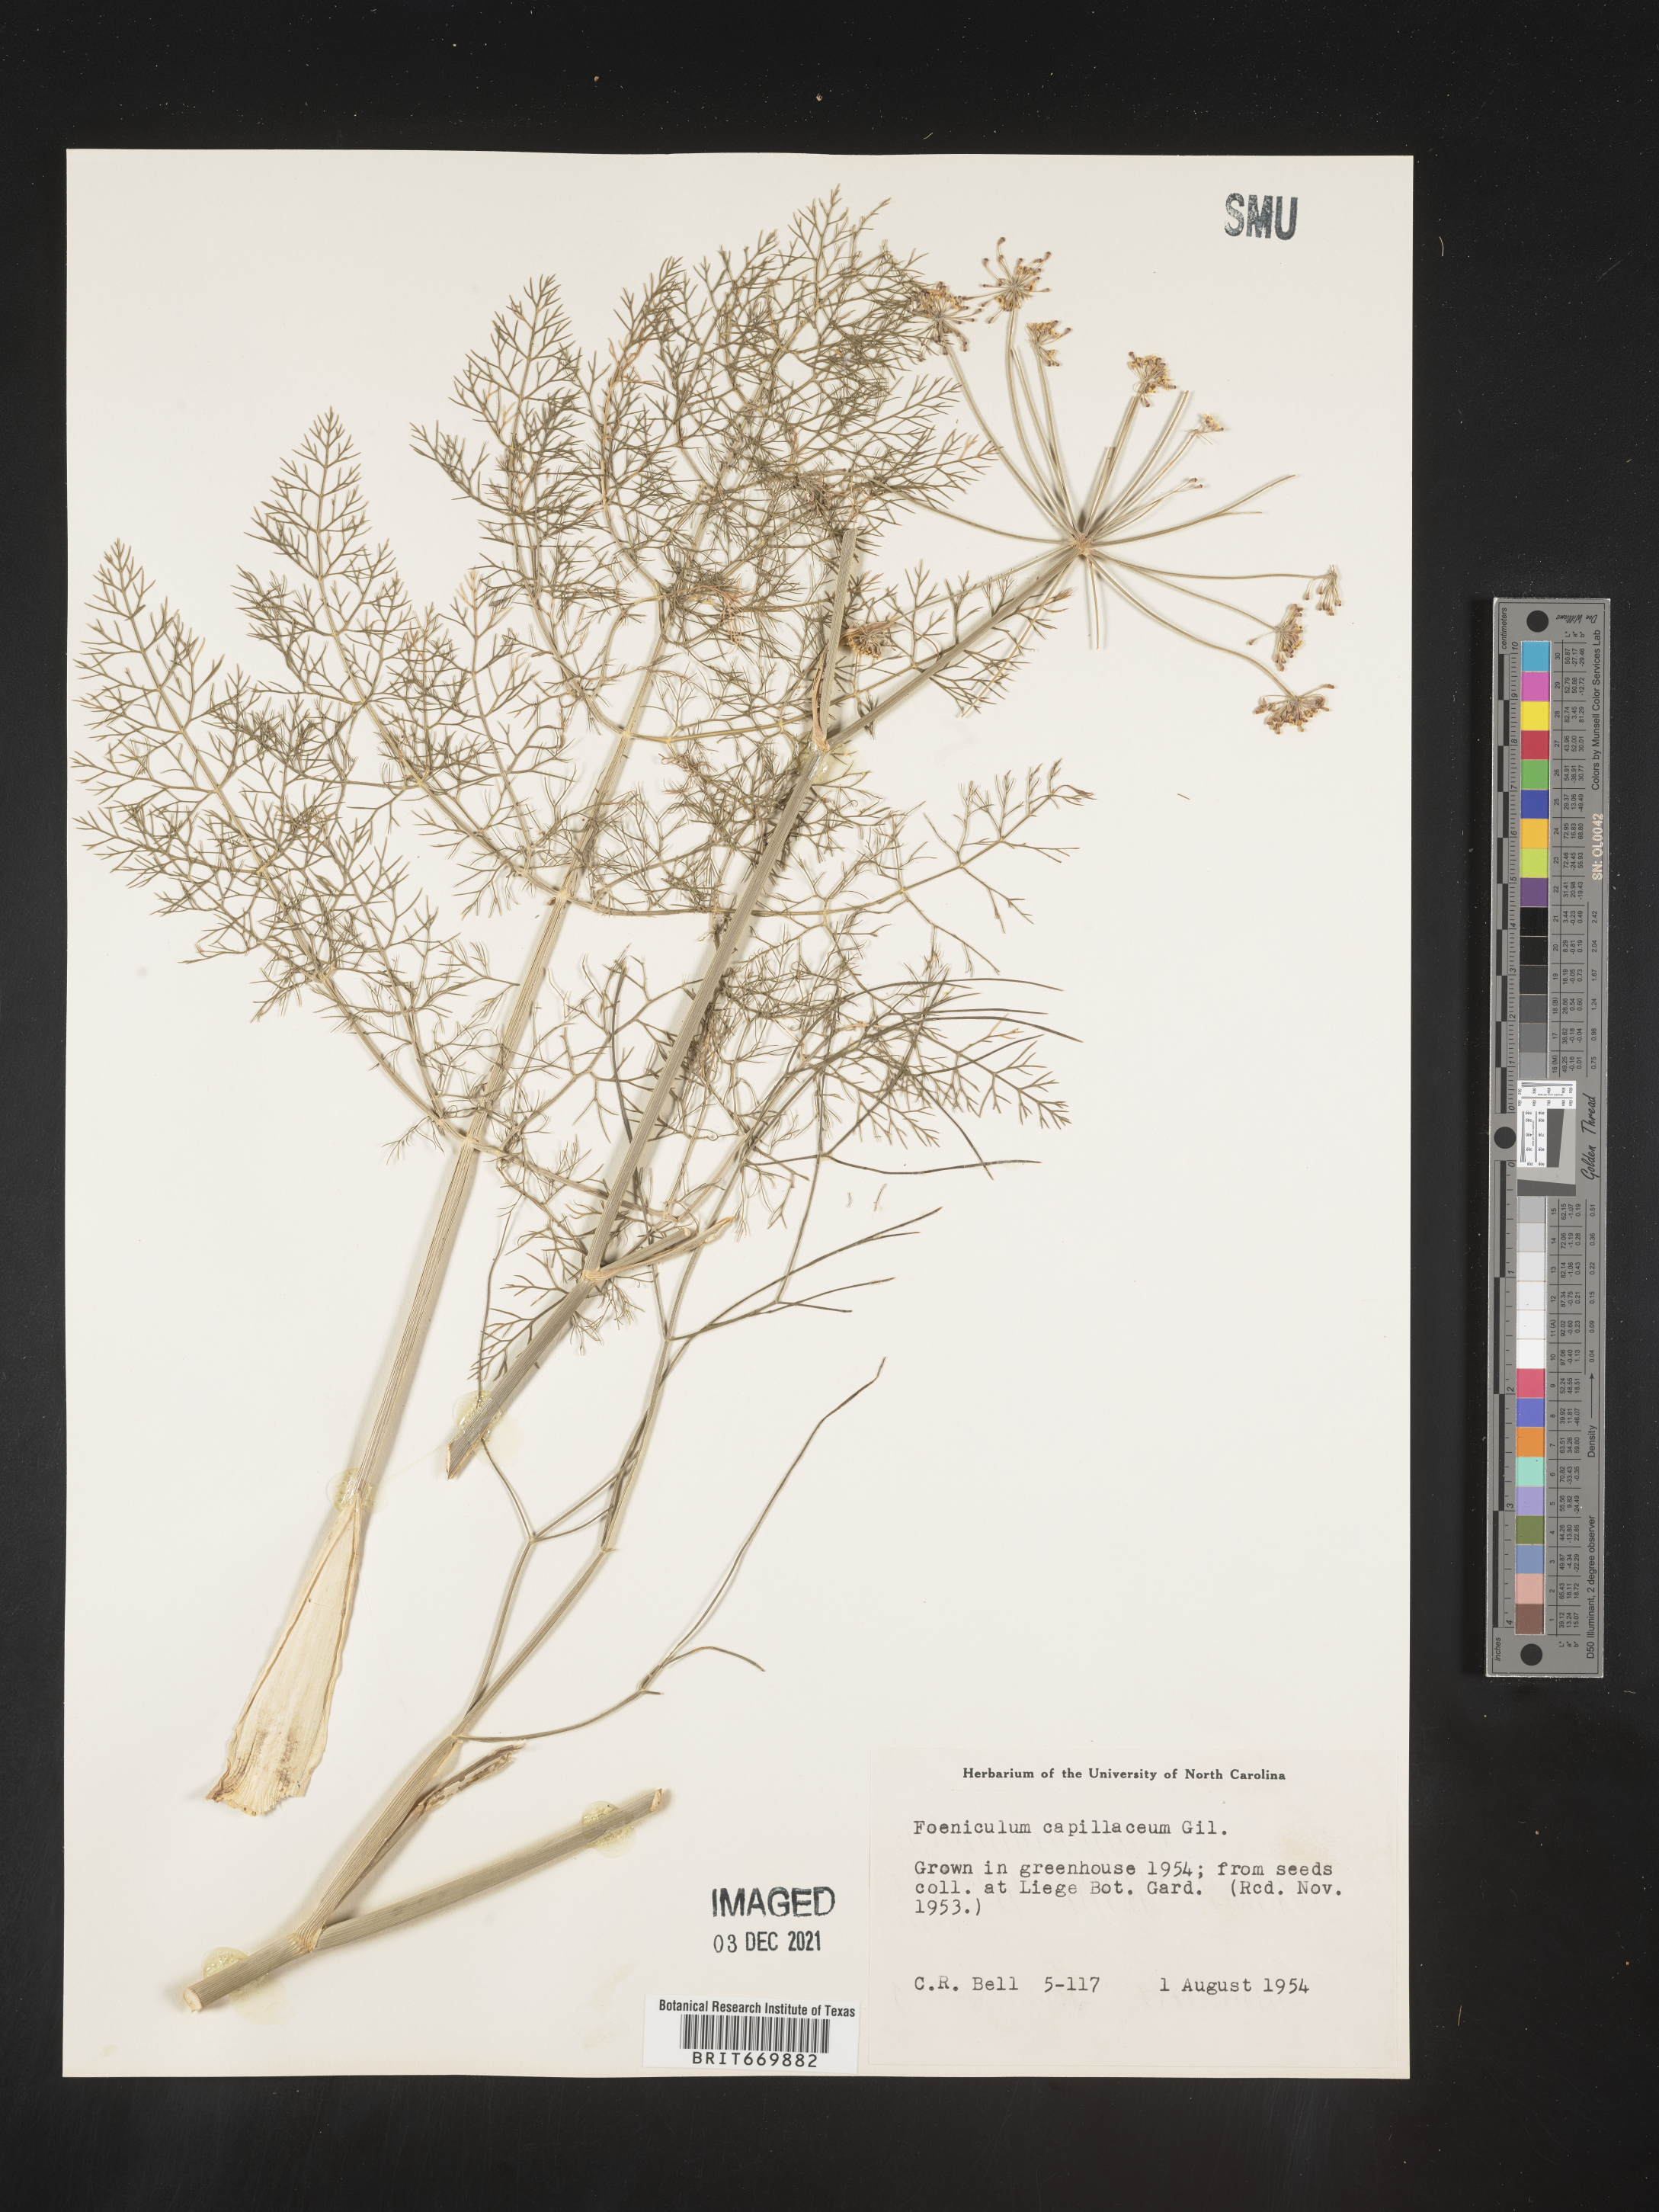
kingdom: Plantae
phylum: Tracheophyta
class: Magnoliopsida
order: Apiales
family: Apiaceae
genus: Foeniculum
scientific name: Foeniculum
